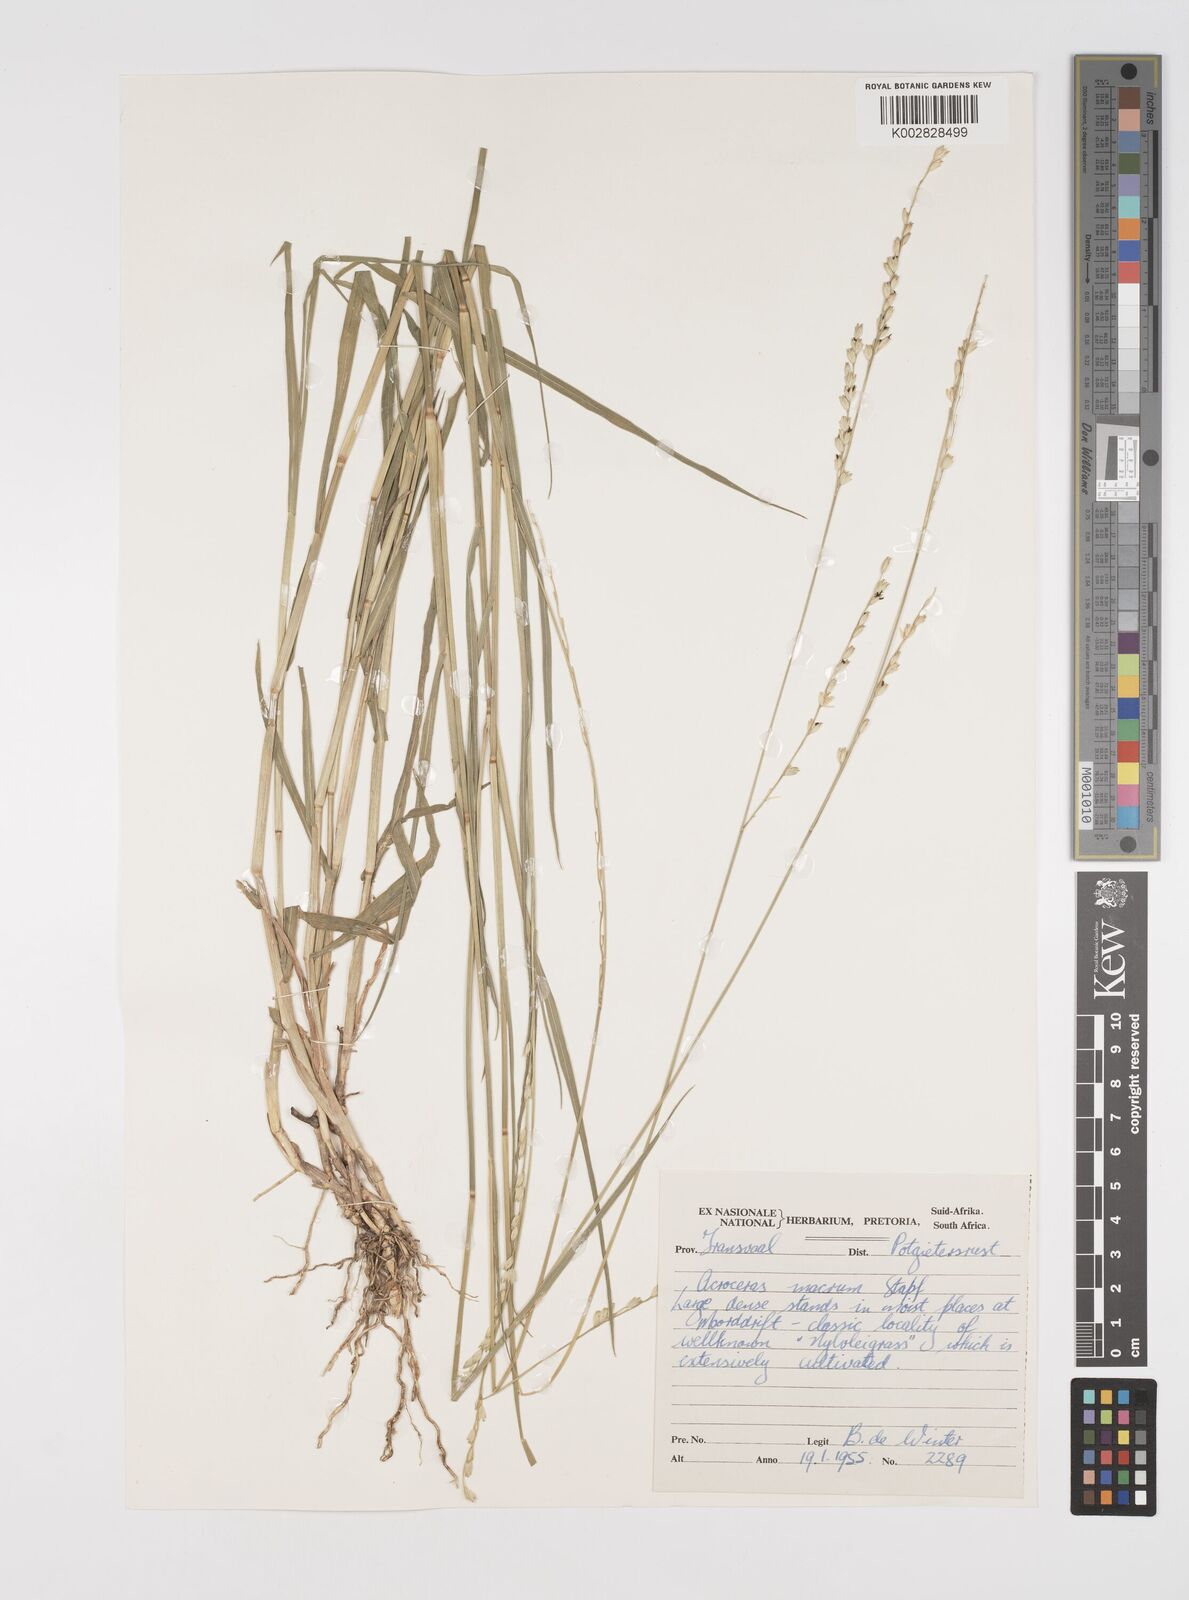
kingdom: Plantae
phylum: Tracheophyta
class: Liliopsida
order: Poales
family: Poaceae
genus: Acroceras
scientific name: Acroceras macrum
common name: Nyl grass
